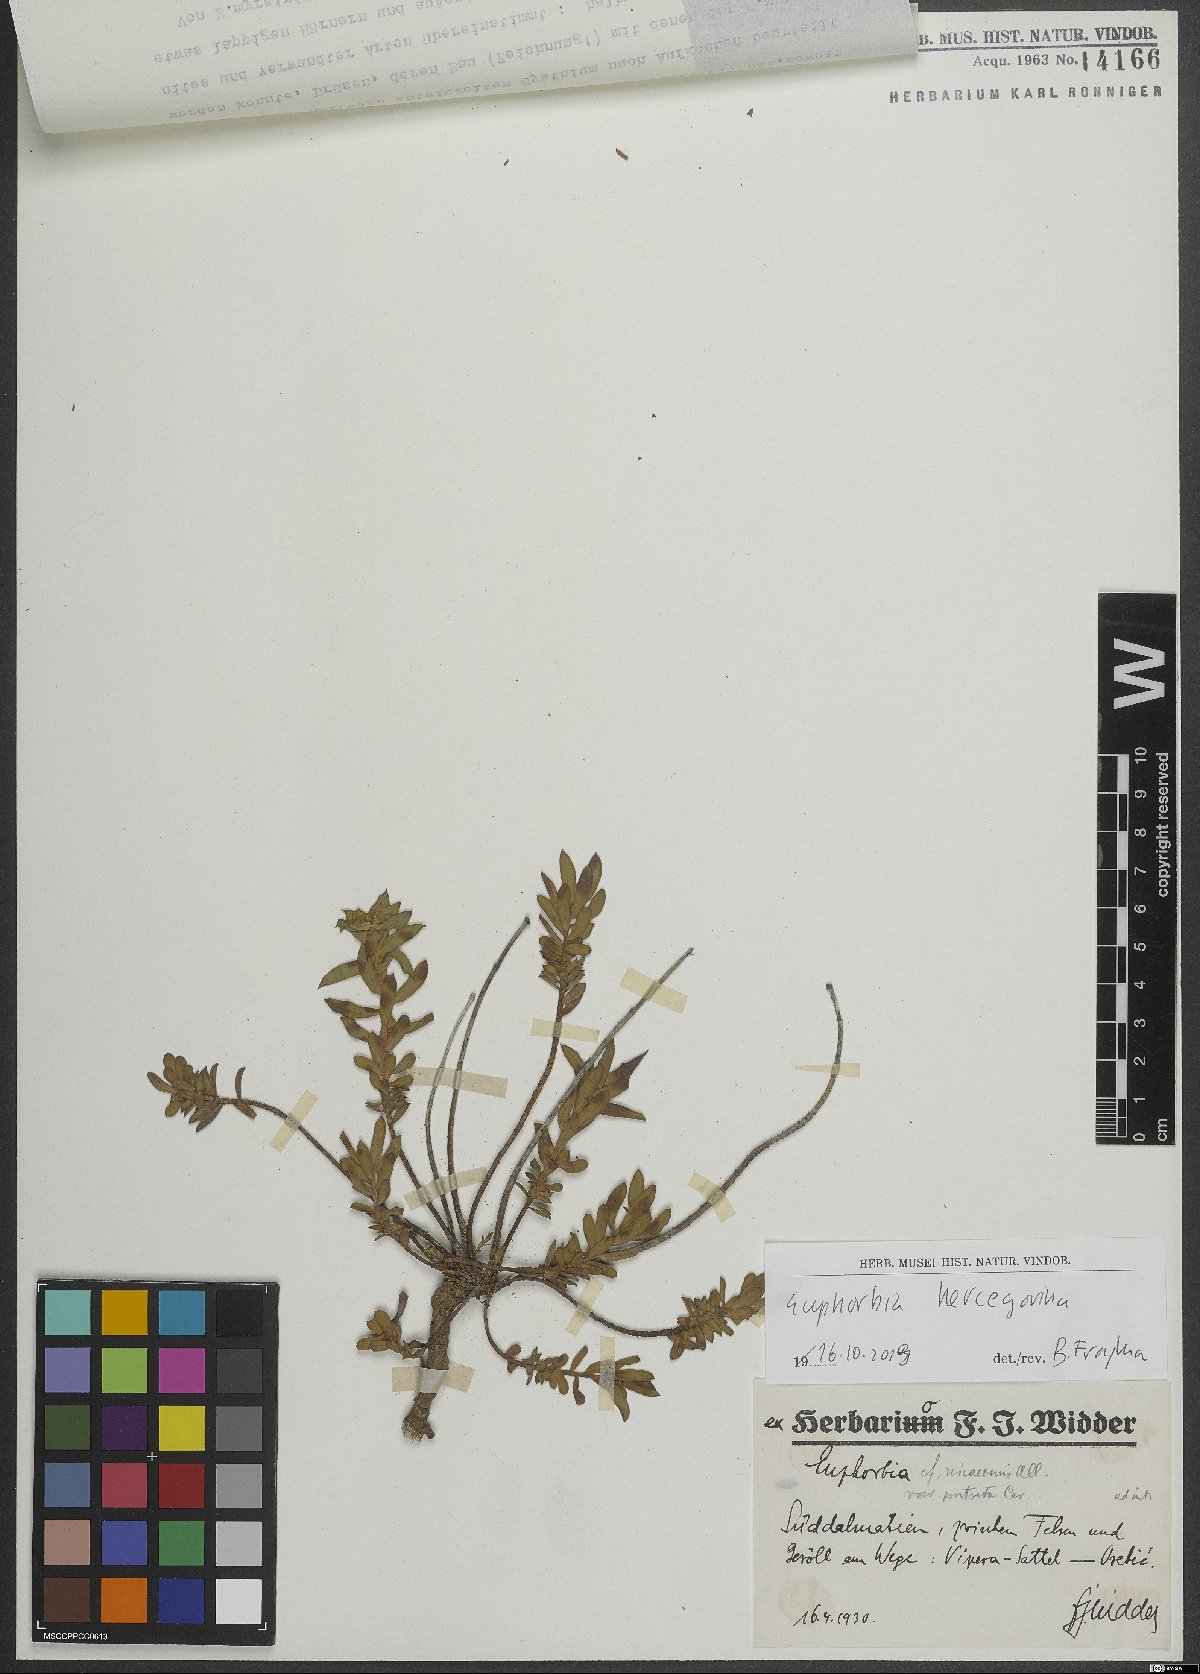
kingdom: Plantae
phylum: Tracheophyta
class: Magnoliopsida
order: Malpighiales
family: Euphorbiaceae
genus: Euphorbia
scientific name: Euphorbia barrelieri
